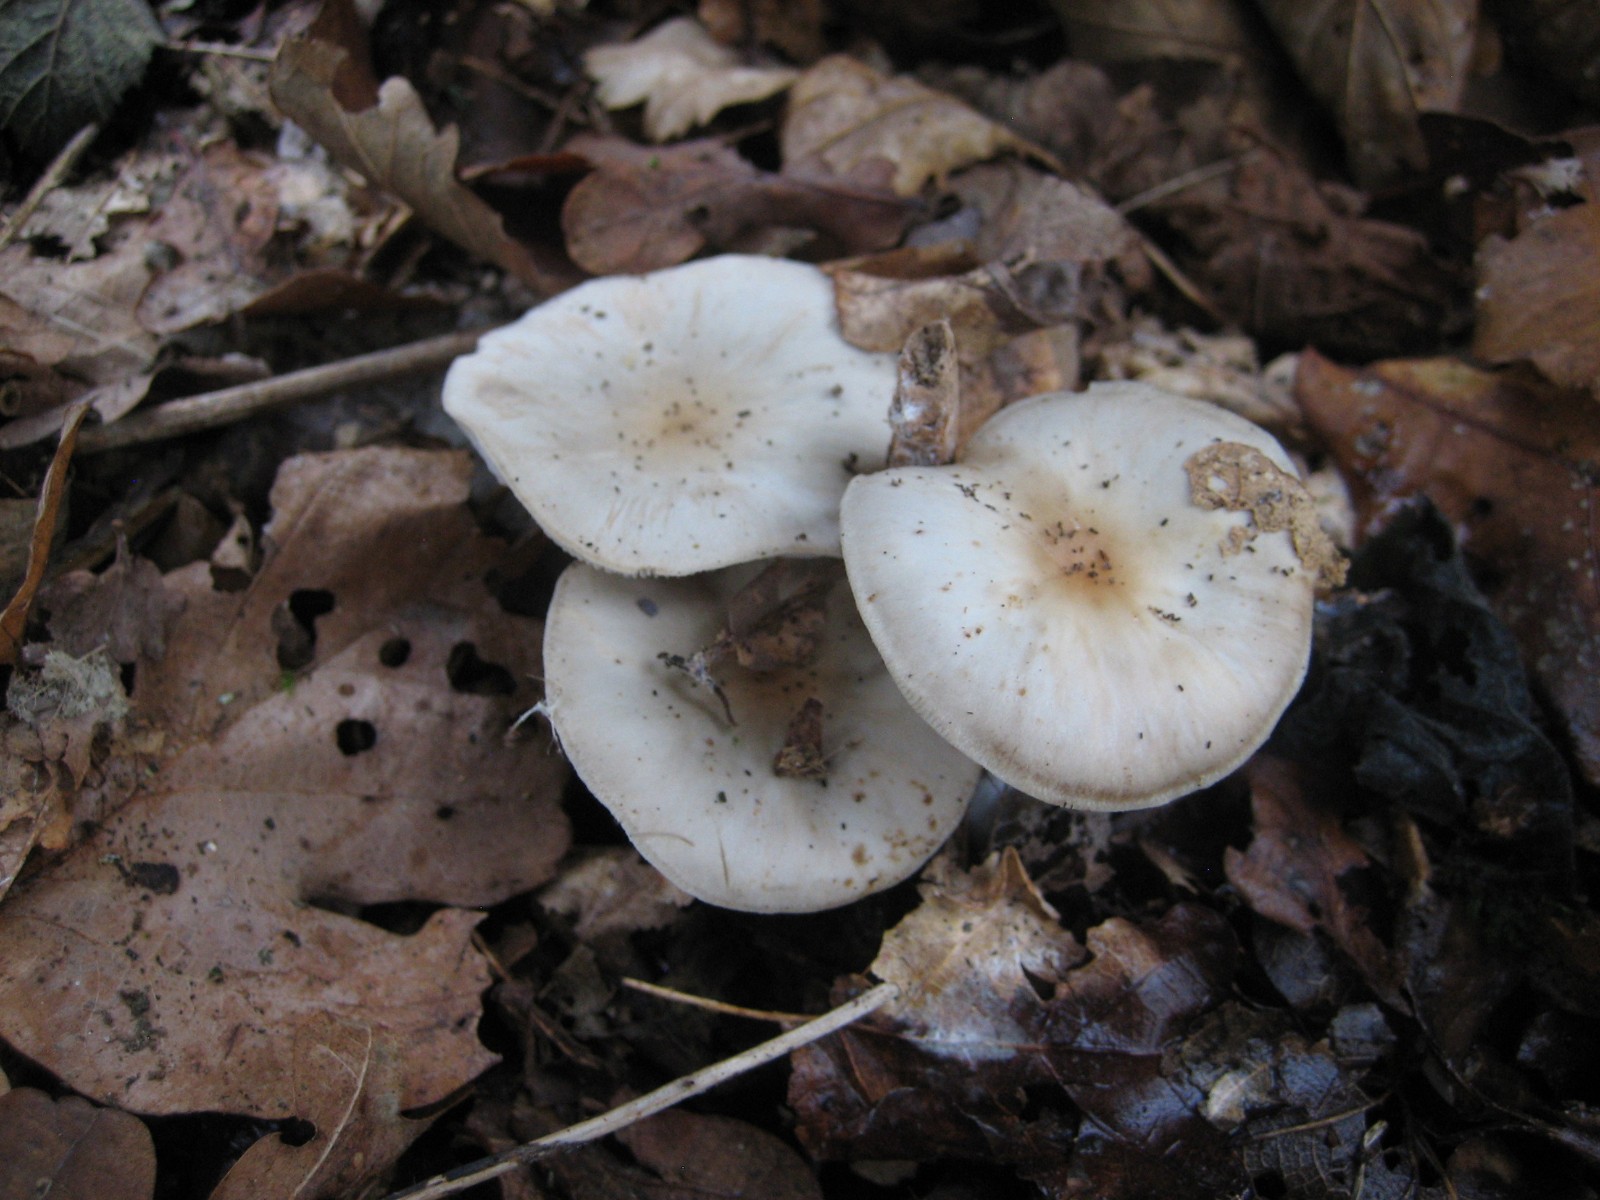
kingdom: Fungi
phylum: Basidiomycota
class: Agaricomycetes
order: Agaricales
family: Omphalotaceae
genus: Rhodocollybia
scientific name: Rhodocollybia asema
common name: horngrå fladhat
